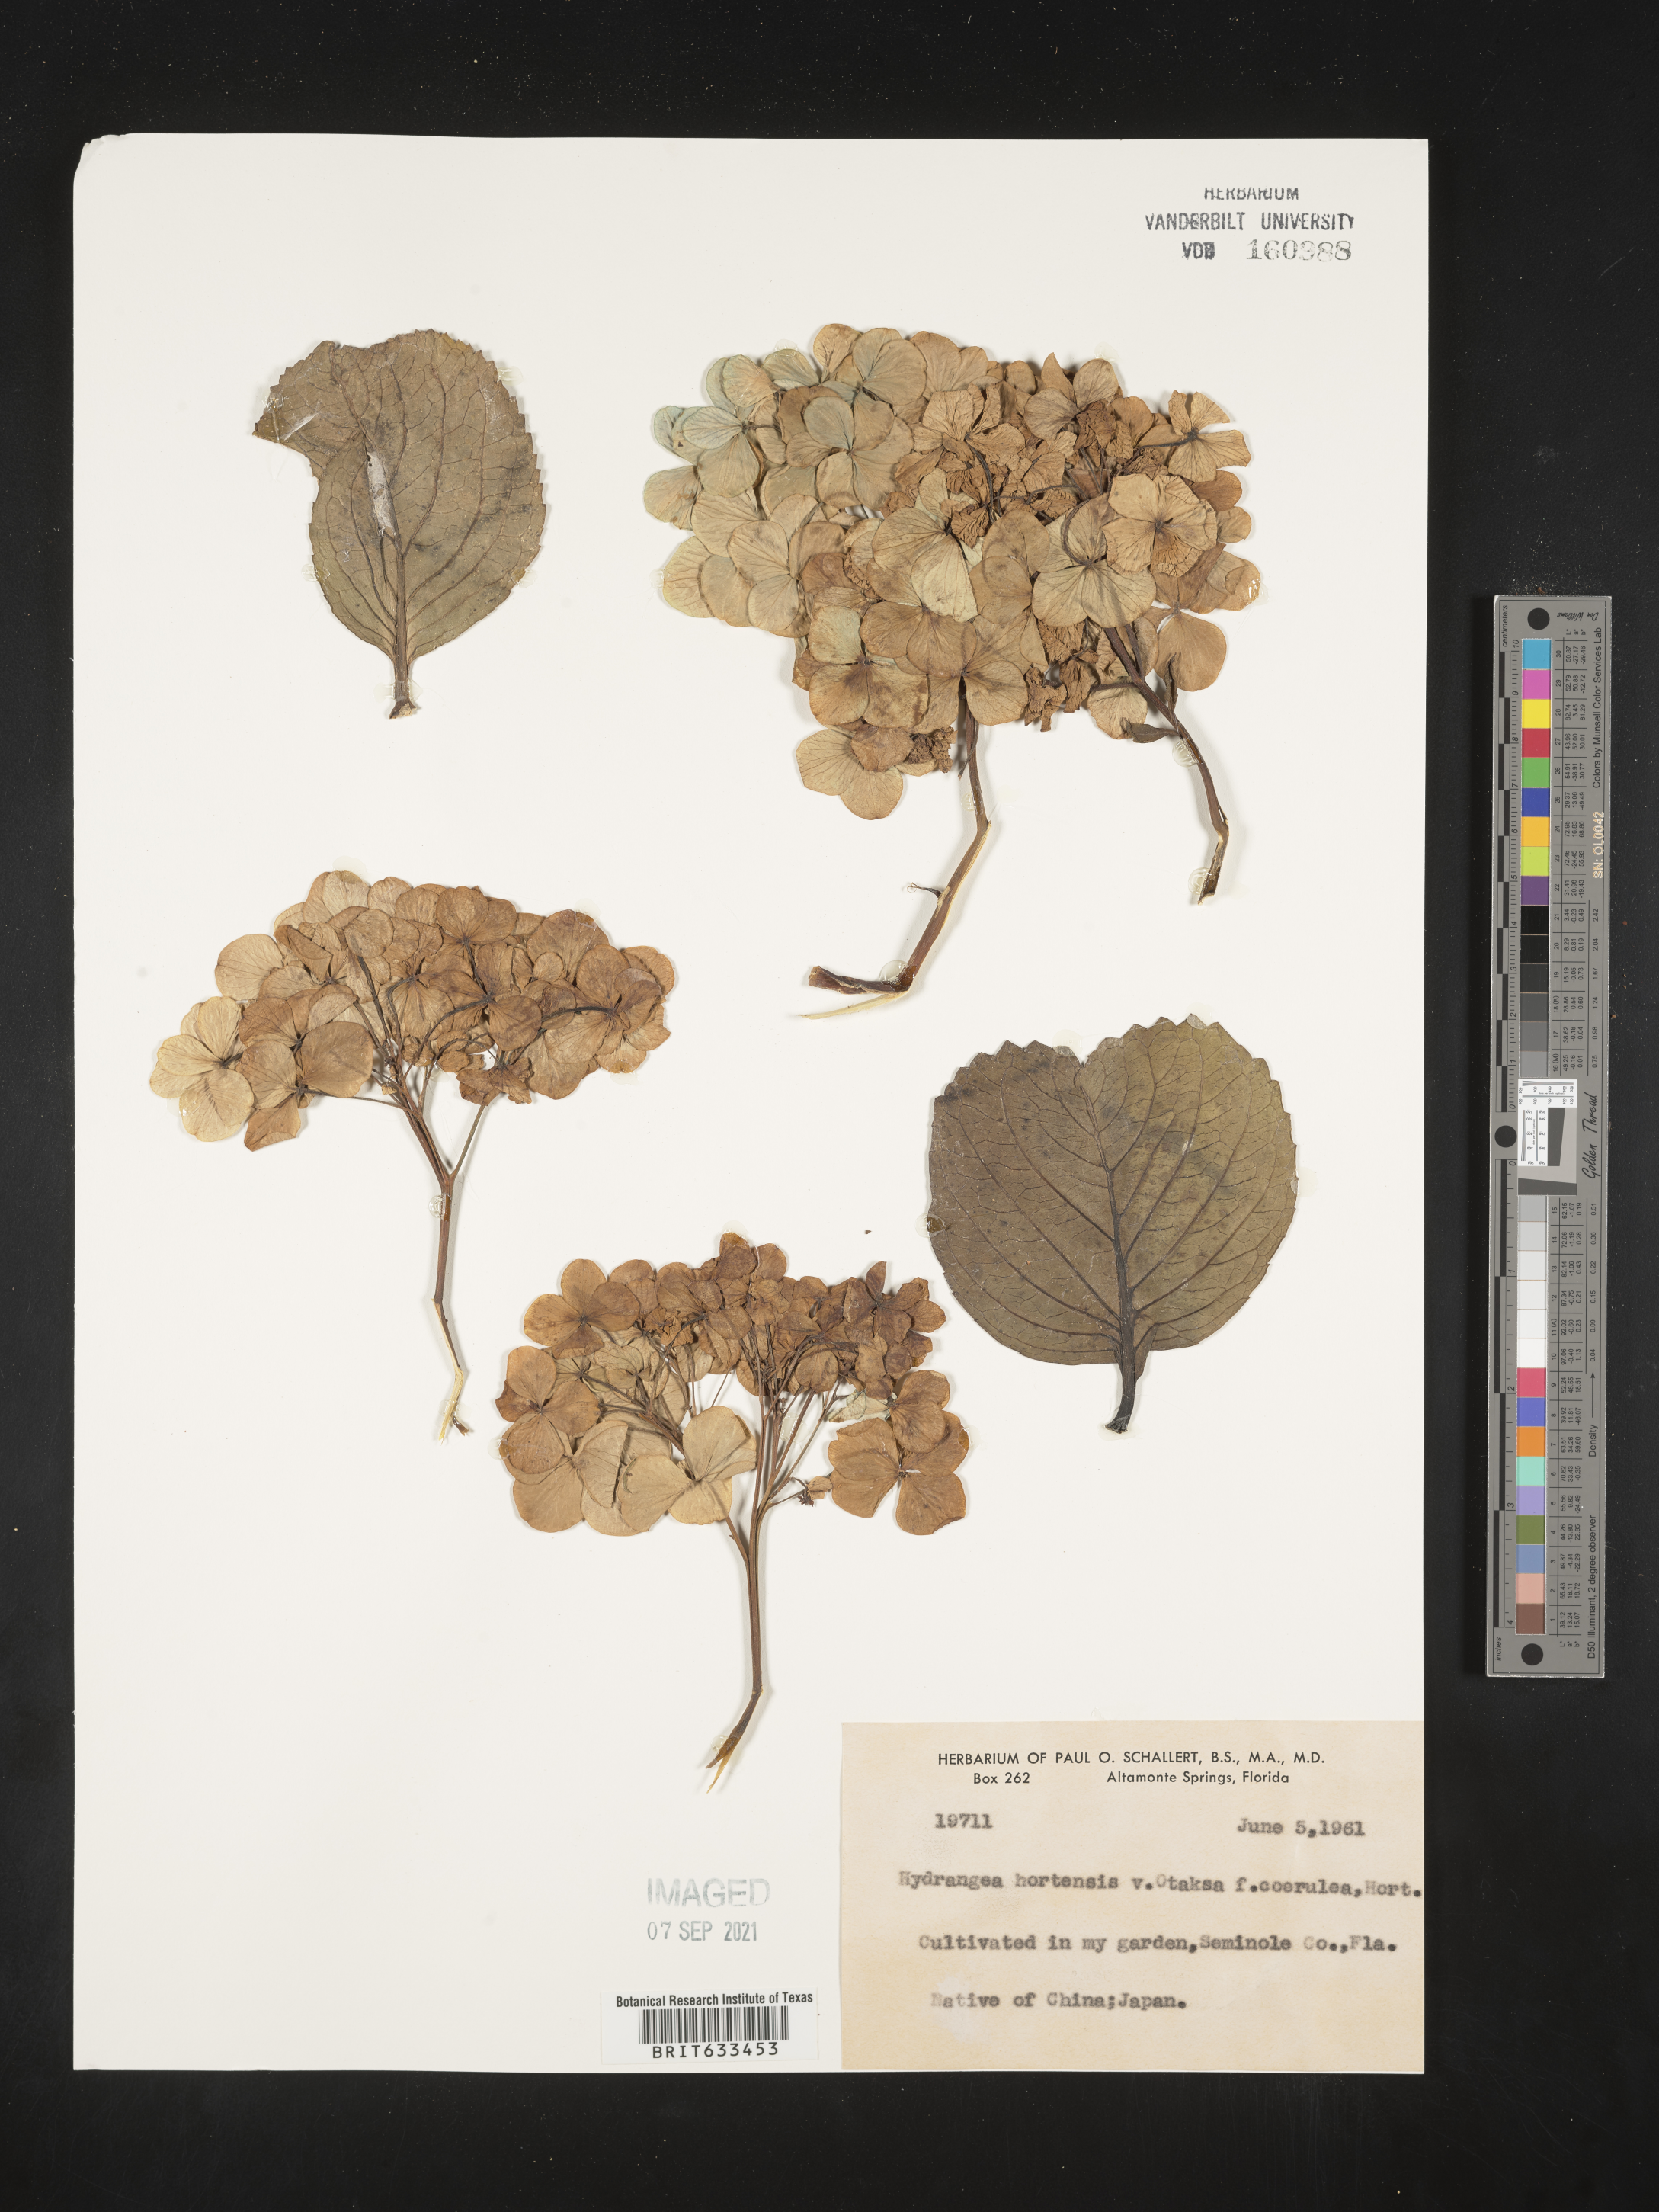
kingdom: Plantae
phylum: Tracheophyta
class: Magnoliopsida
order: Cornales
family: Hydrangeaceae
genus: Hydrangea
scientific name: Hydrangea
